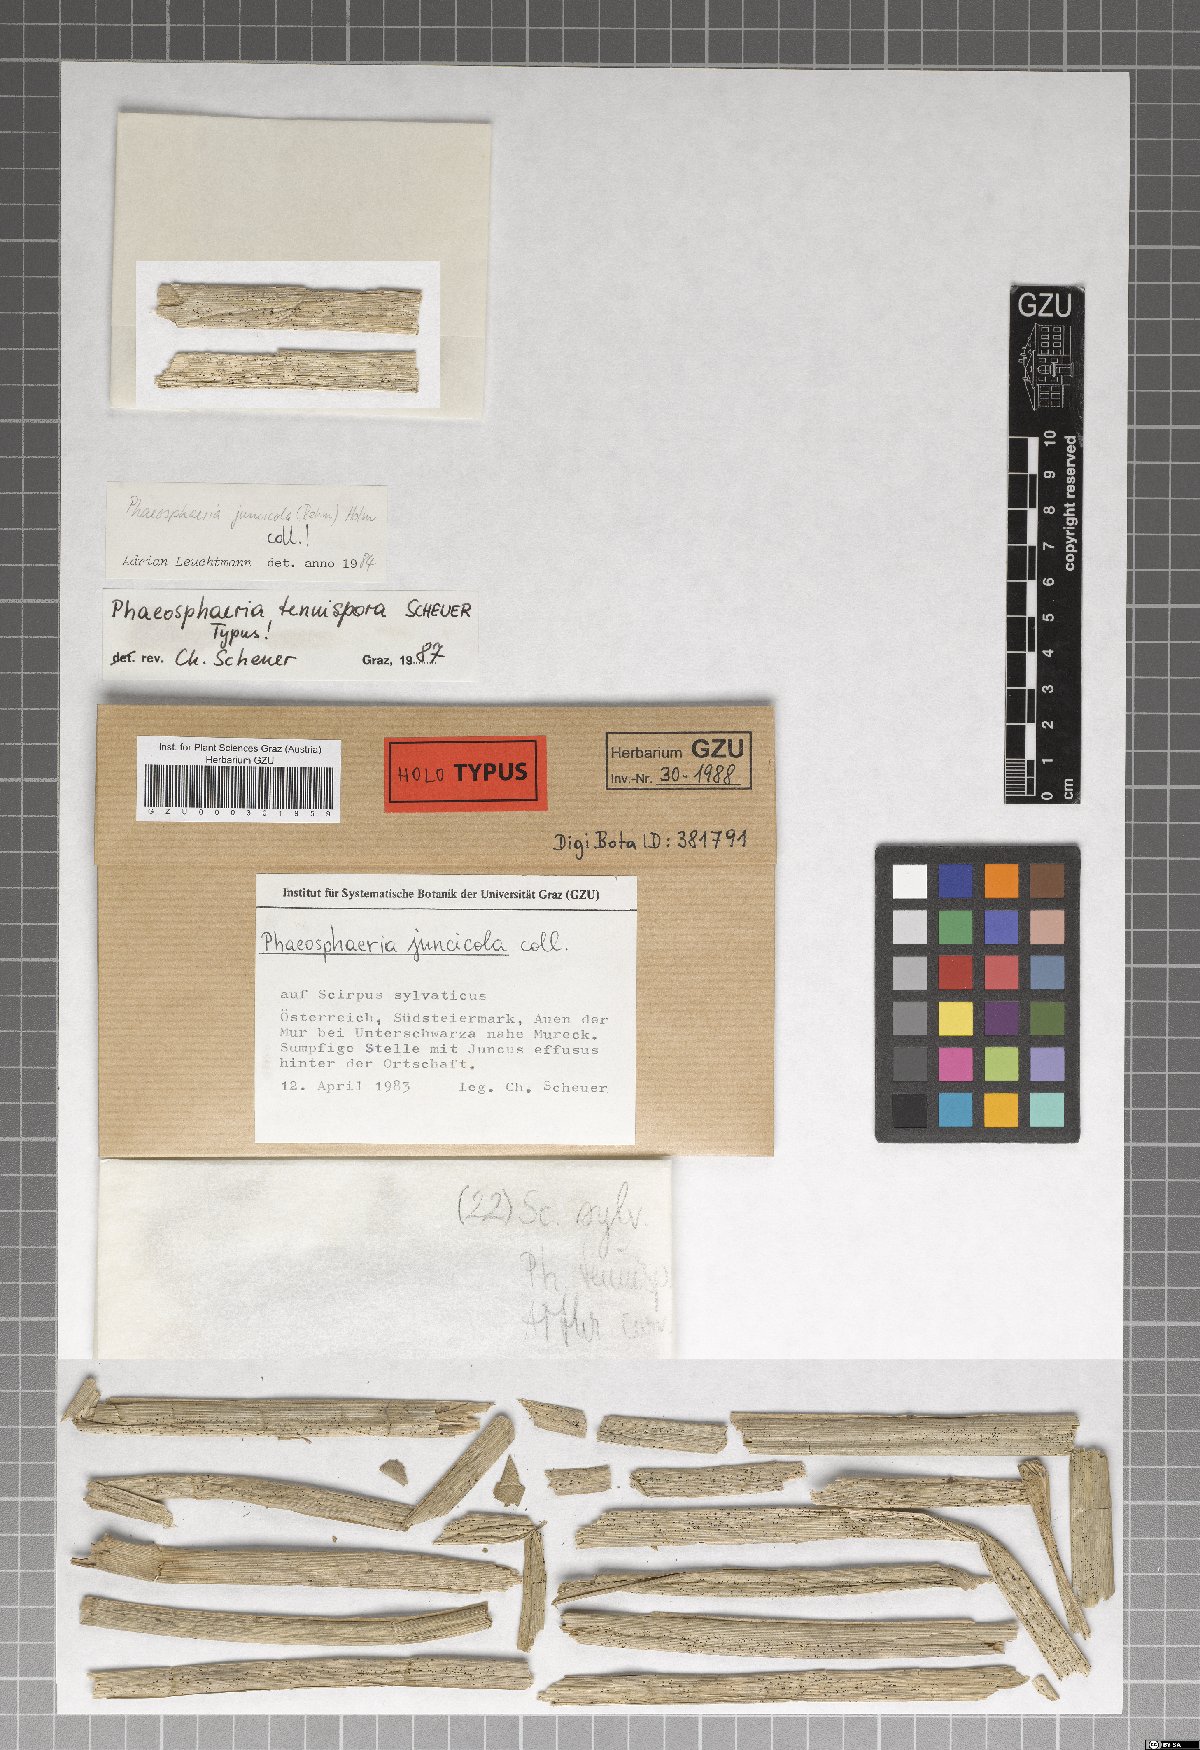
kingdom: Fungi
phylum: Ascomycota
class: Dothideomycetes
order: Pleosporales
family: Phaeosphaeriaceae
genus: Phaeosphaeria
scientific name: Phaeosphaeria tenuispora
